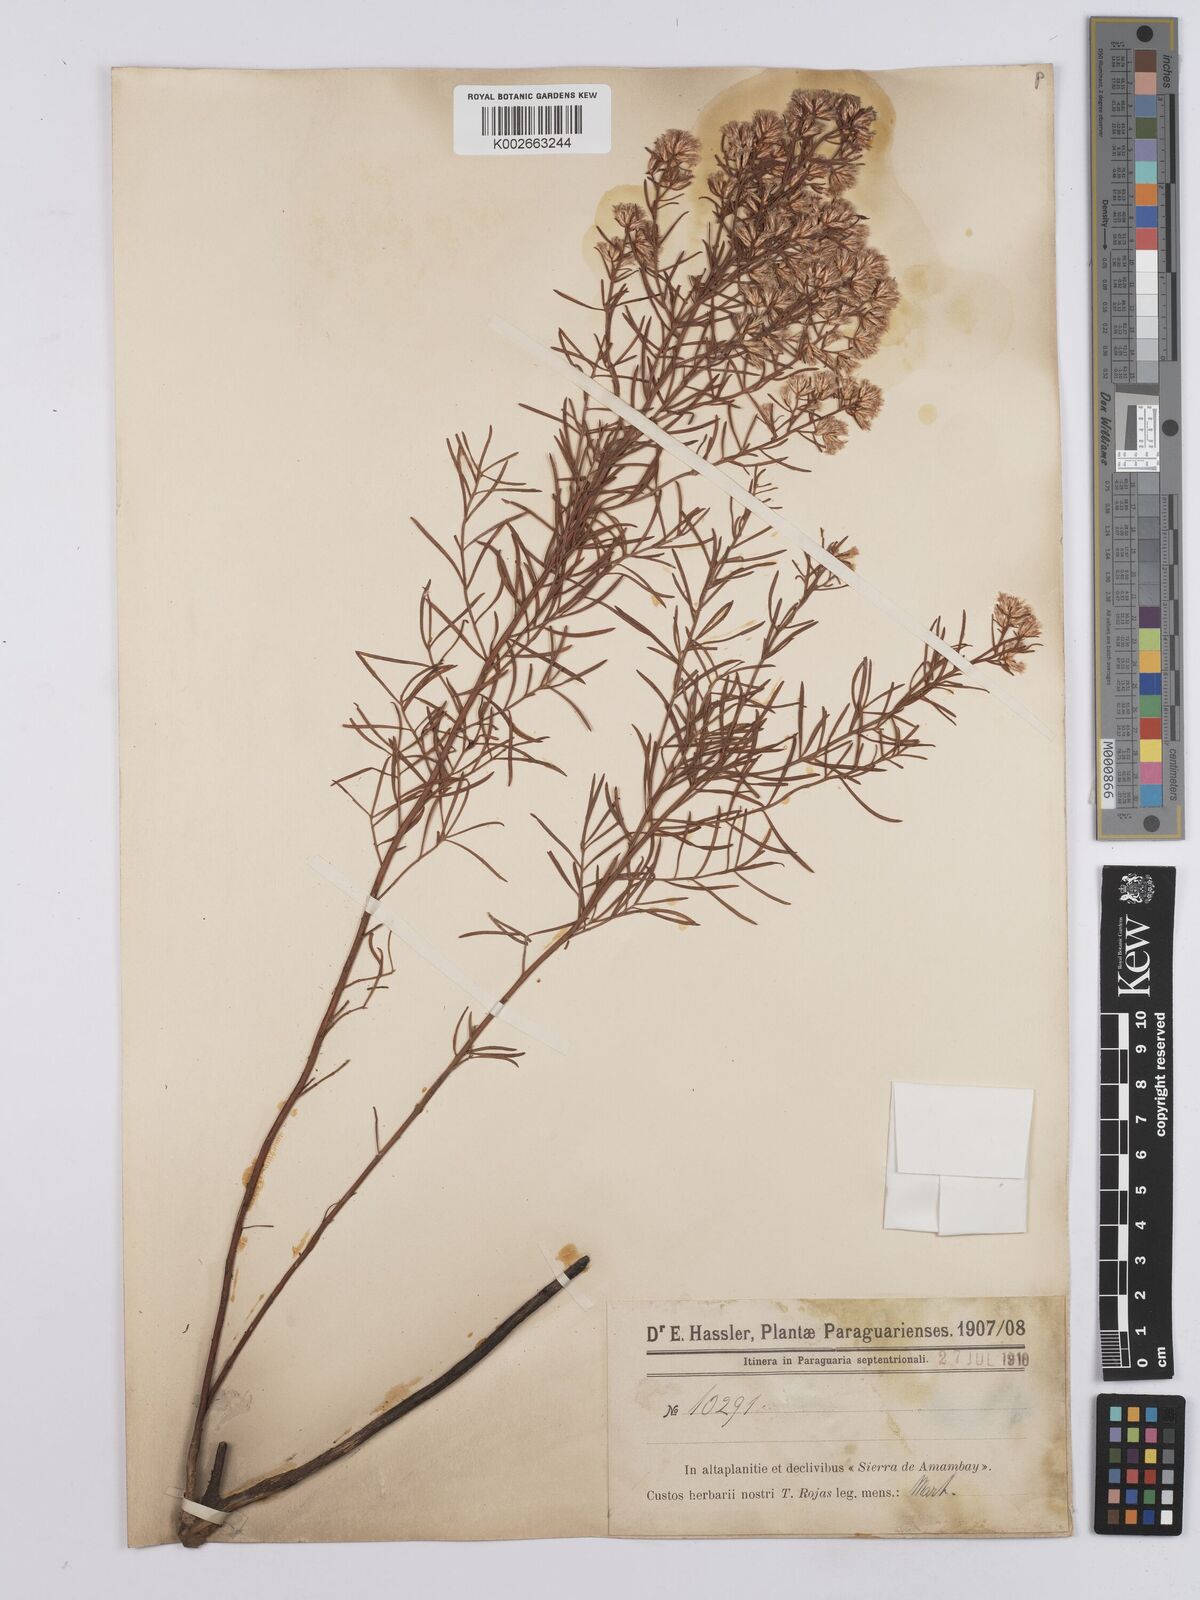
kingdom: Plantae
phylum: Tracheophyta
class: Magnoliopsida
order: Asterales
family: Asteraceae
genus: Baccharis
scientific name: Baccharis pseudotenuifolia
